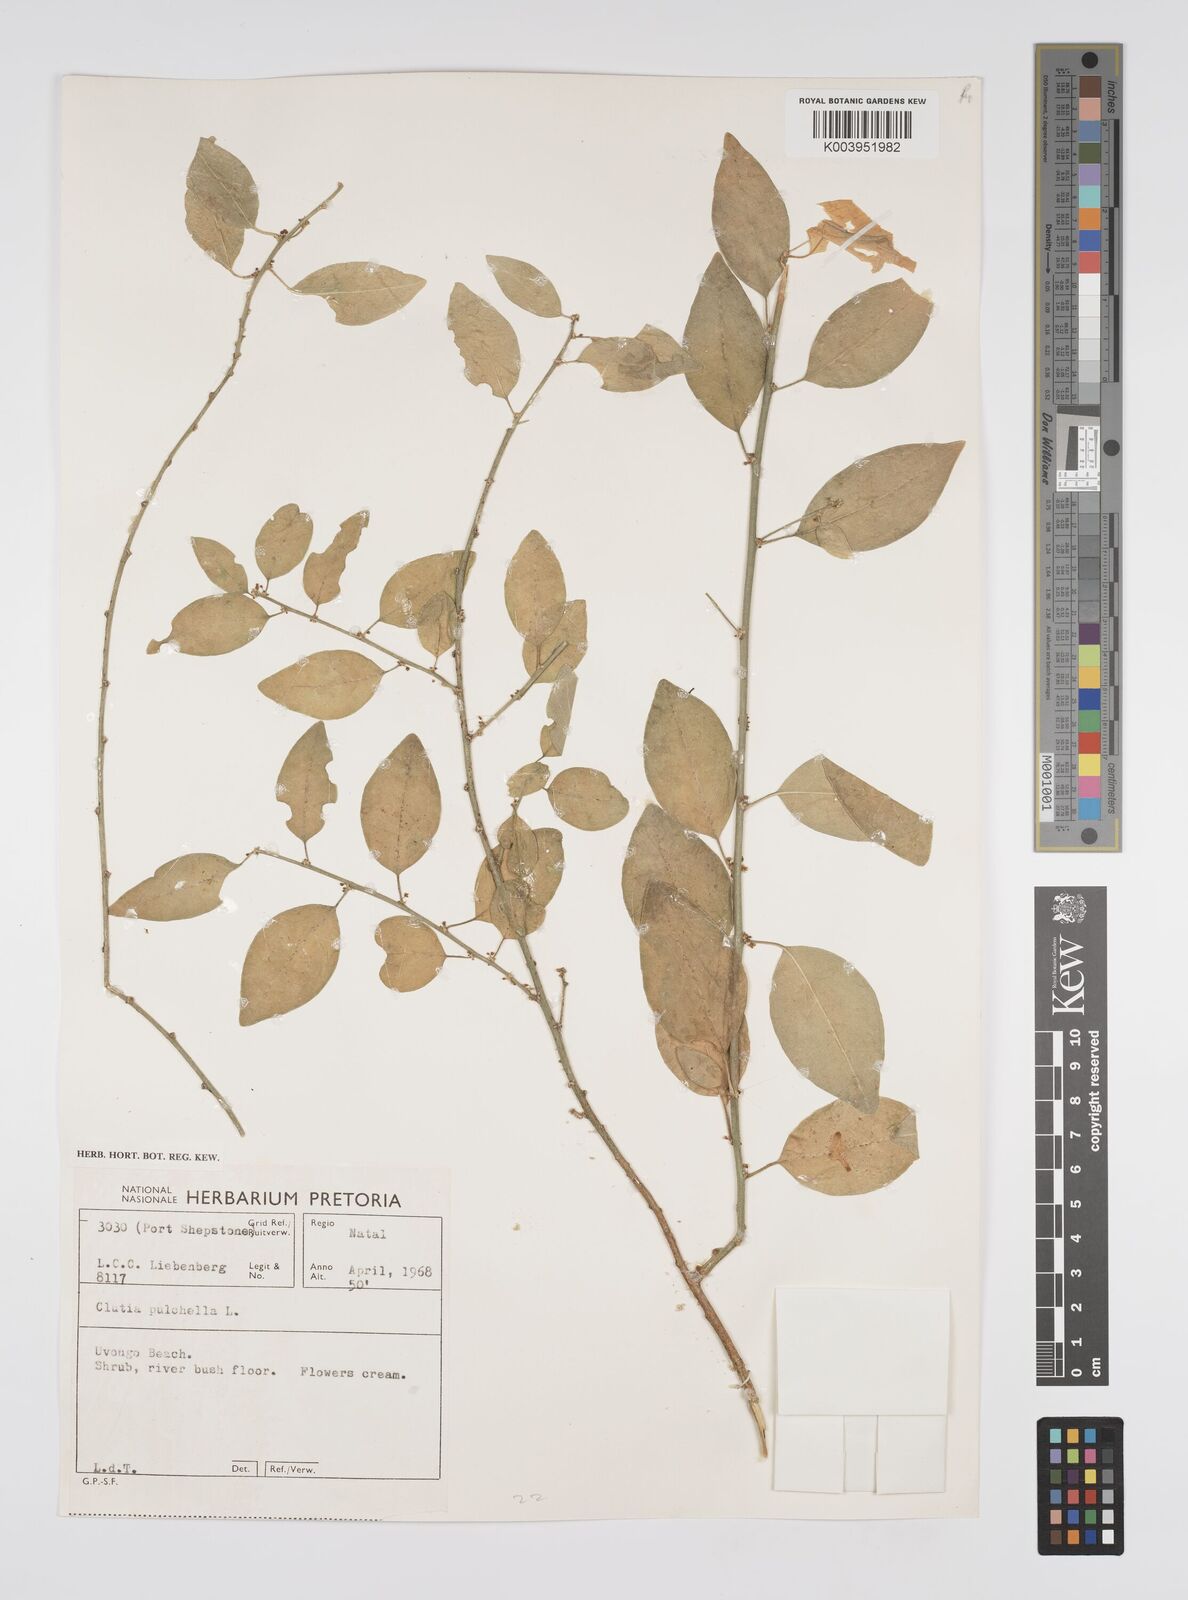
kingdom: Plantae
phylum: Tracheophyta
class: Magnoliopsida
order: Malpighiales
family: Peraceae
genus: Clutia
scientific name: Clutia pulchella
